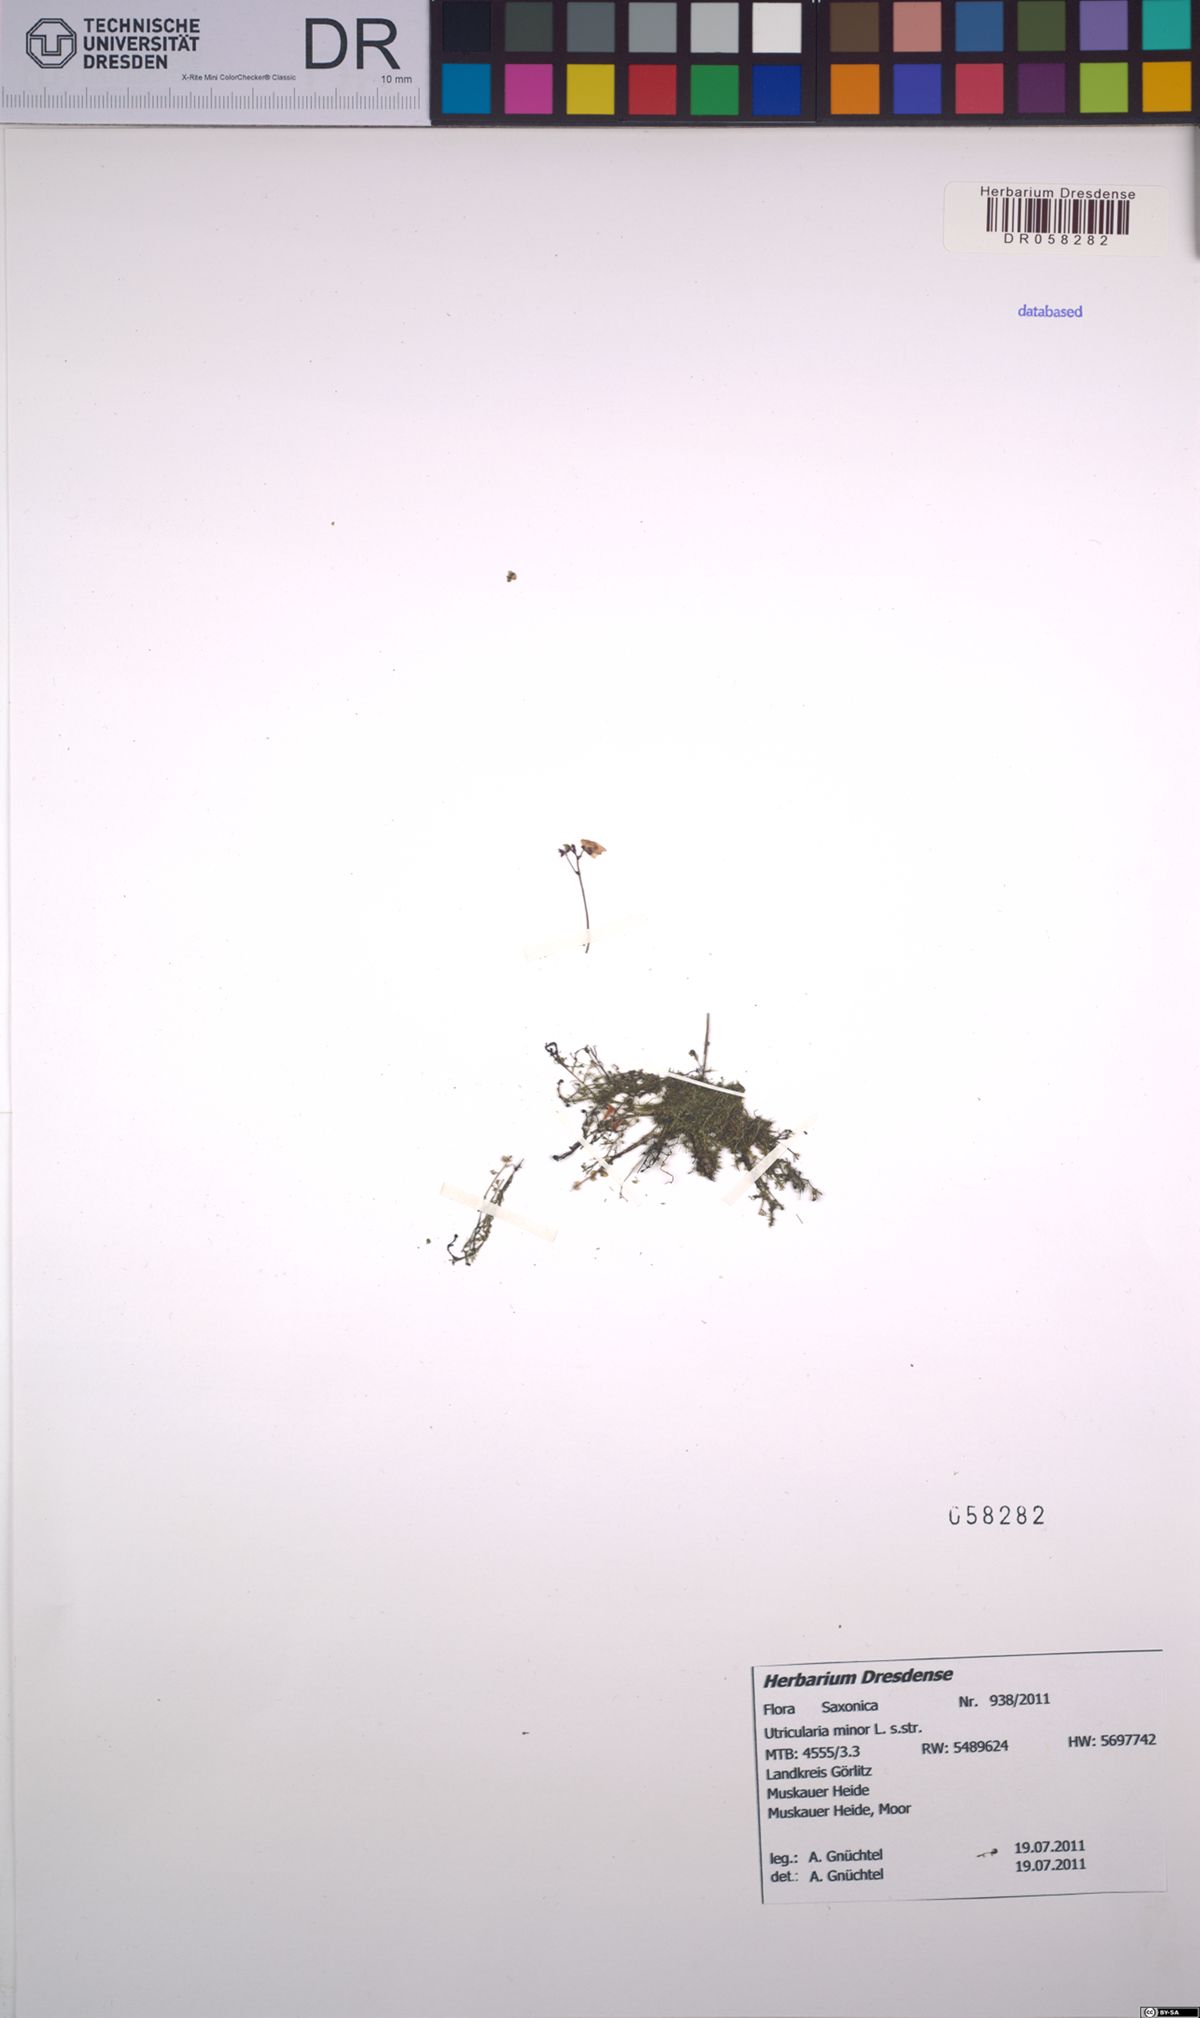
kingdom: Plantae
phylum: Tracheophyta
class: Magnoliopsida
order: Lamiales
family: Lentibulariaceae
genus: Utricularia
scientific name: Utricularia minor
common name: Lesser bladderwort
